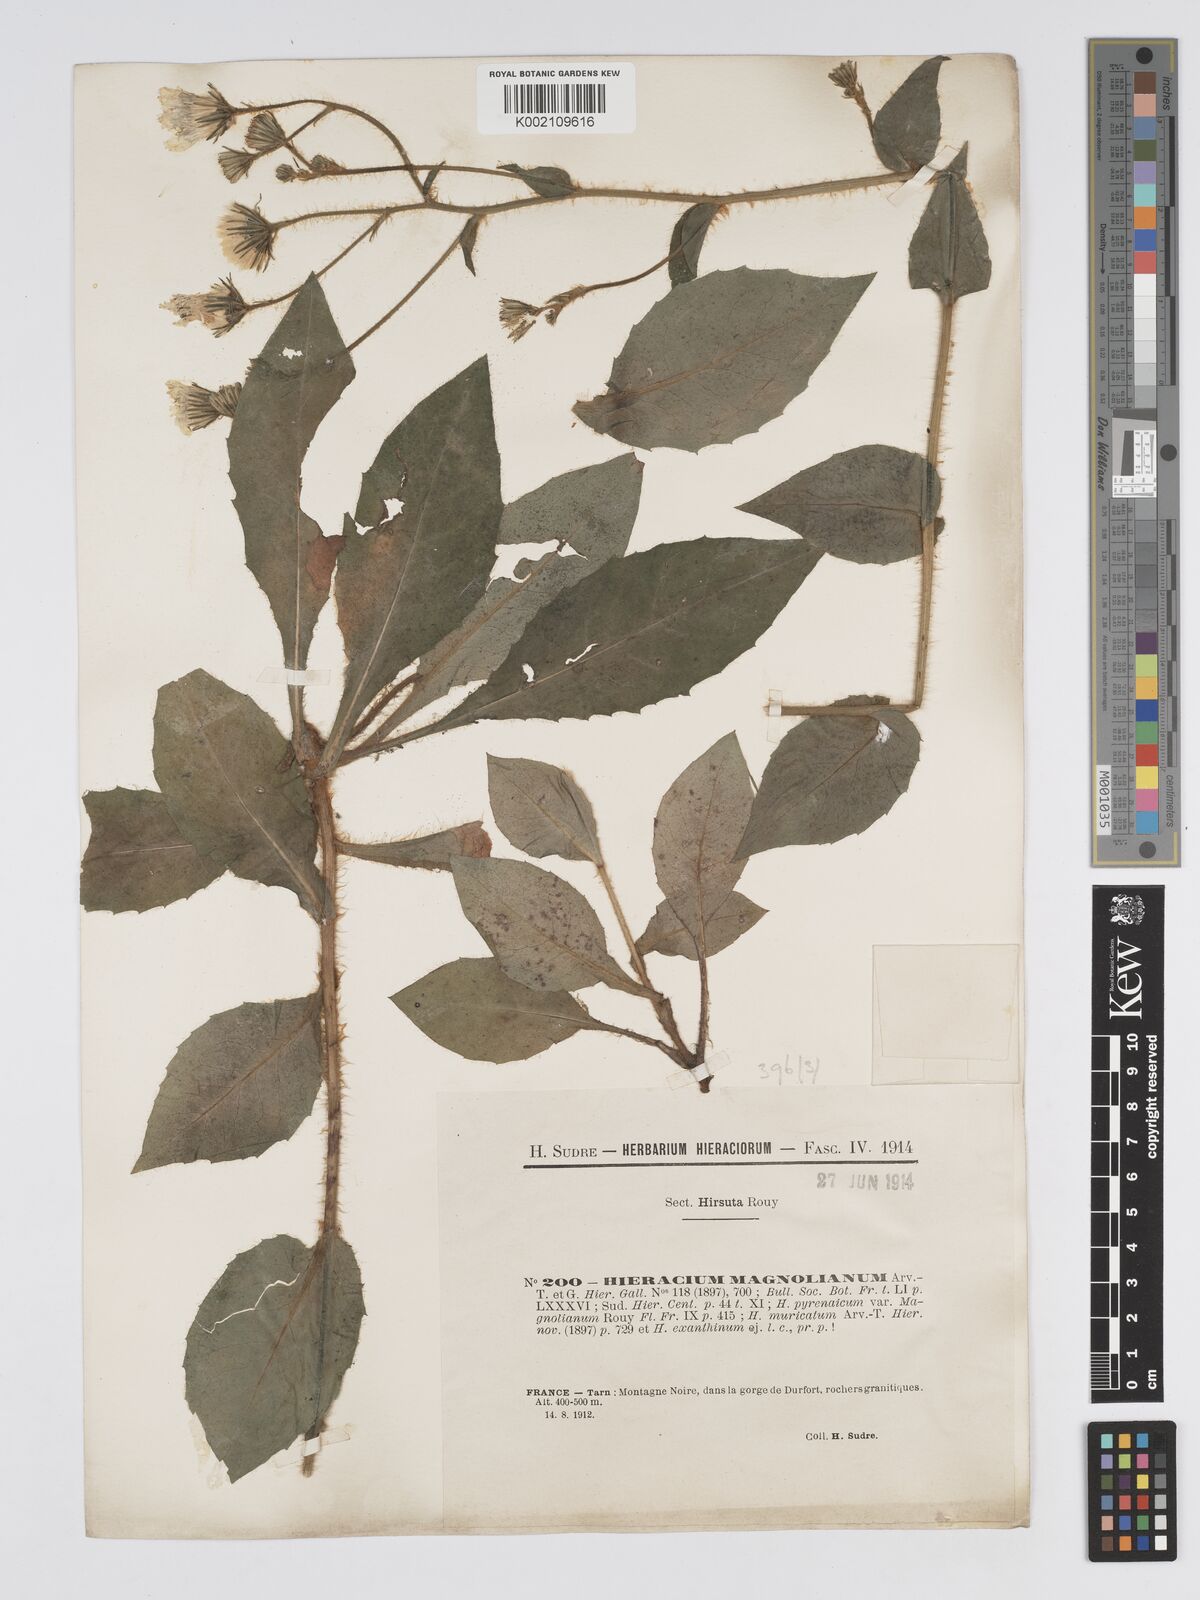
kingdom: Plantae
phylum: Tracheophyta
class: Magnoliopsida
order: Asterales
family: Asteraceae
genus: Hieracium
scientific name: Hieracium compositum
